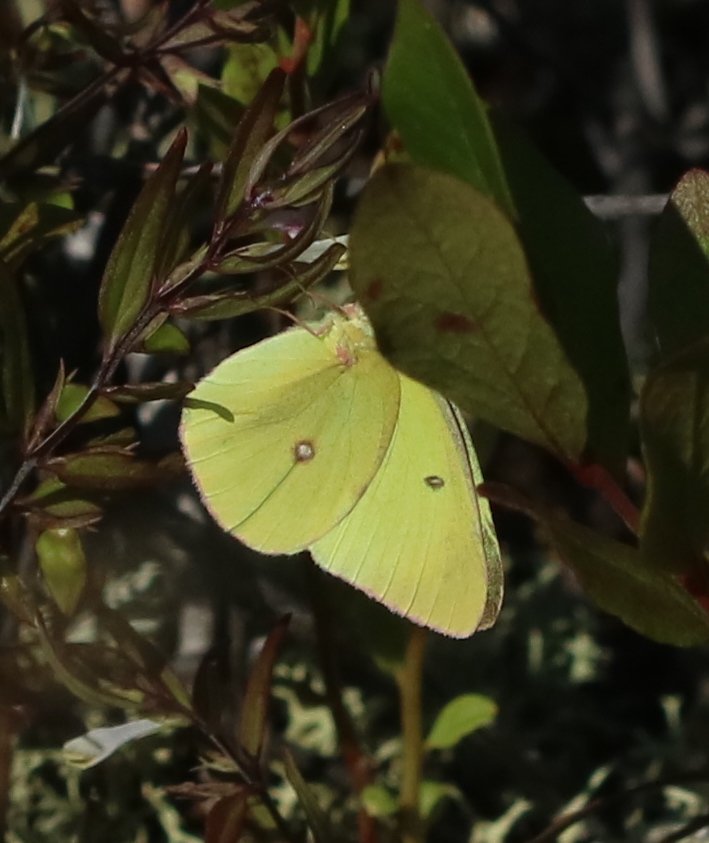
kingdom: Animalia
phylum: Arthropoda
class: Insecta
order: Lepidoptera
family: Pieridae
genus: Colias
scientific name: Colias interior
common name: Pink-edged Sulphur
